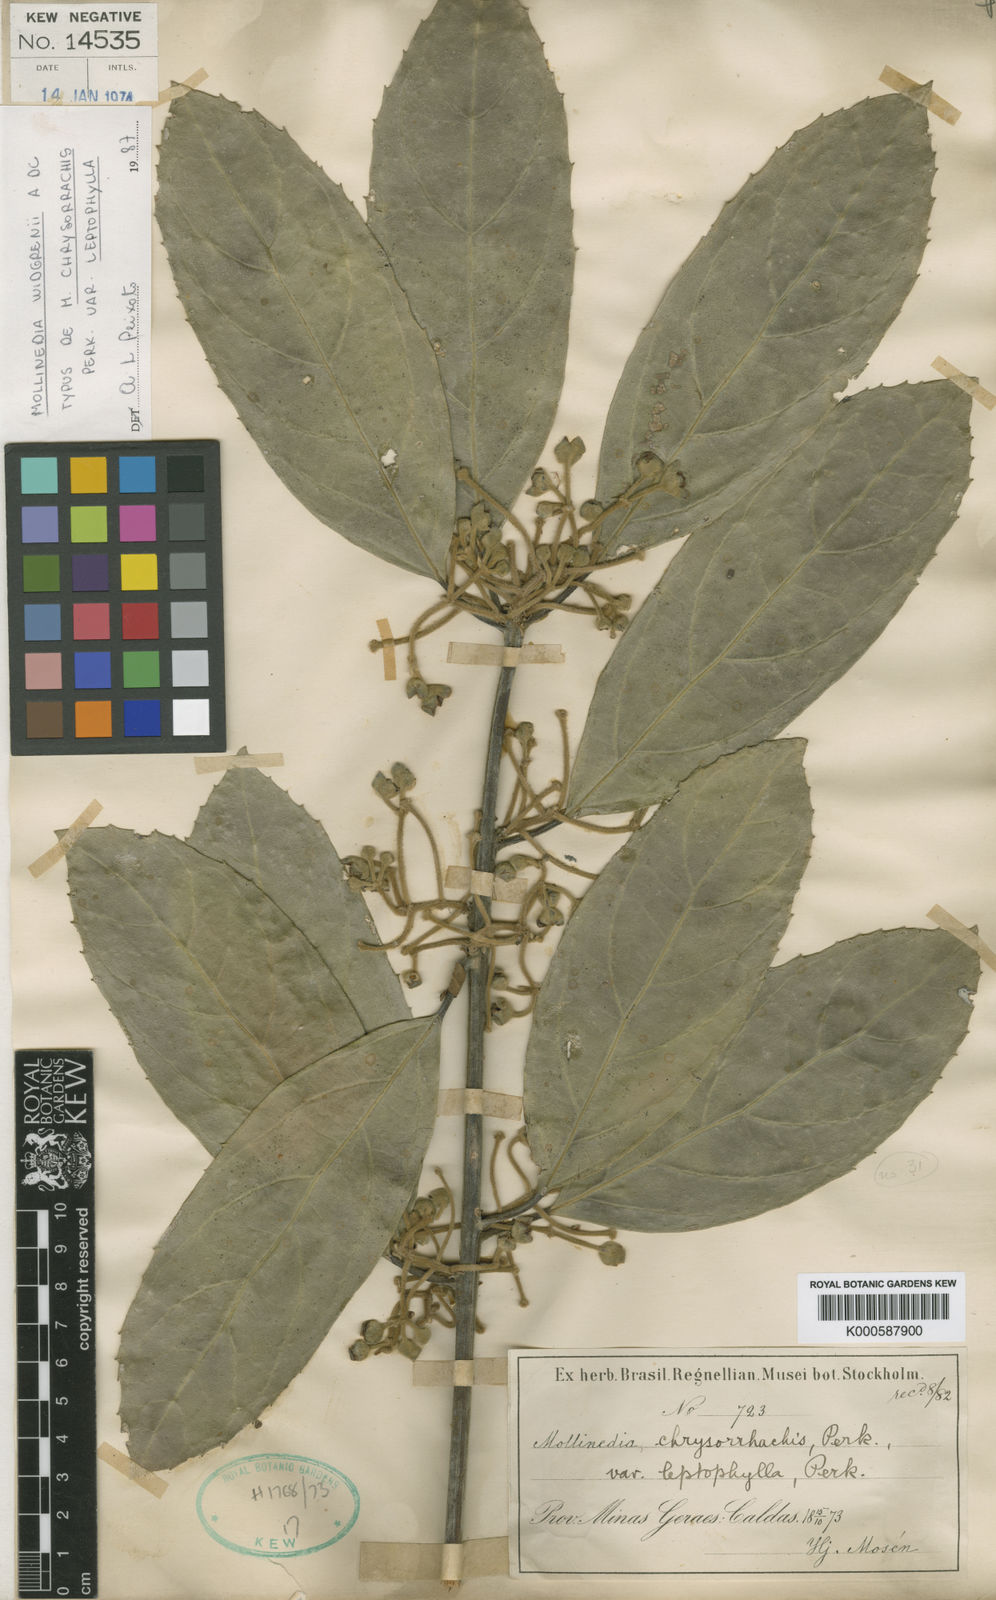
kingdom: Plantae
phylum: Tracheophyta
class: Magnoliopsida
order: Laurales
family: Monimiaceae
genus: Mollinedia
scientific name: Mollinedia widgrenii
